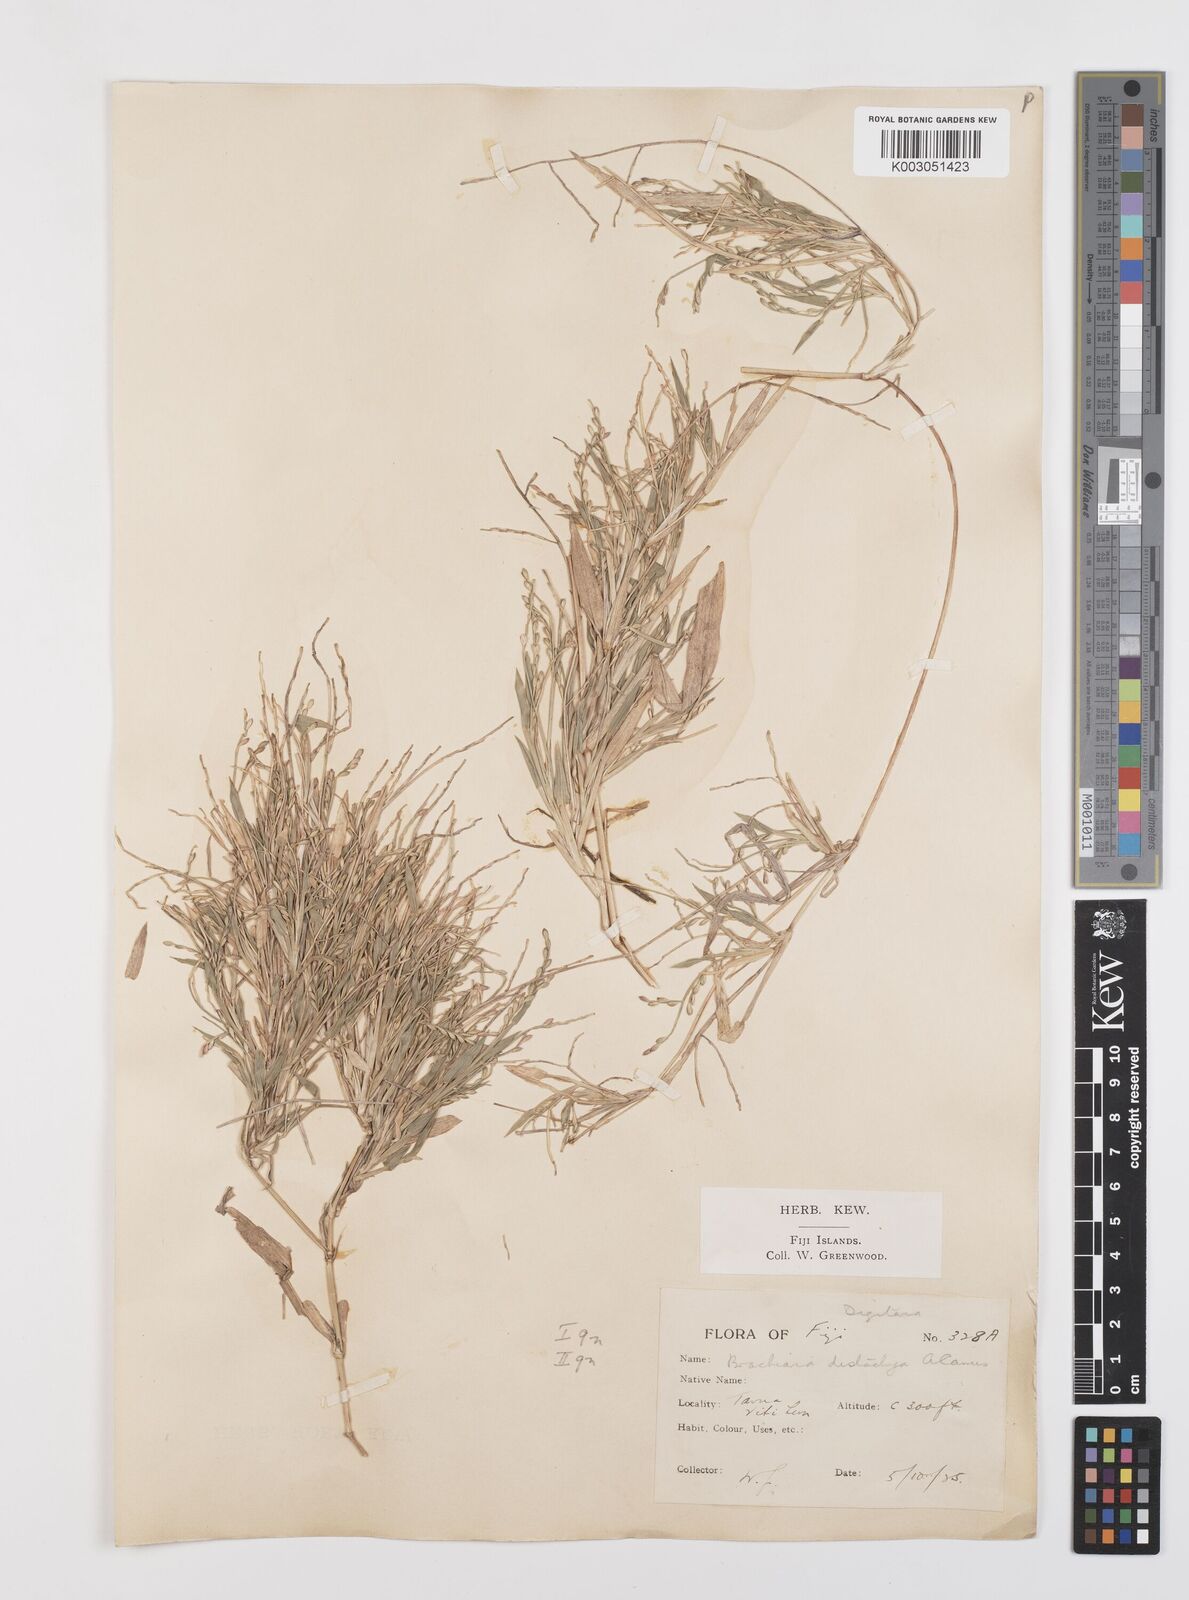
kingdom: Plantae
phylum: Tracheophyta
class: Liliopsida
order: Poales
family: Poaceae
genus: Urochloa
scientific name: Urochloa subquadripara
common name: Armgrass millet
